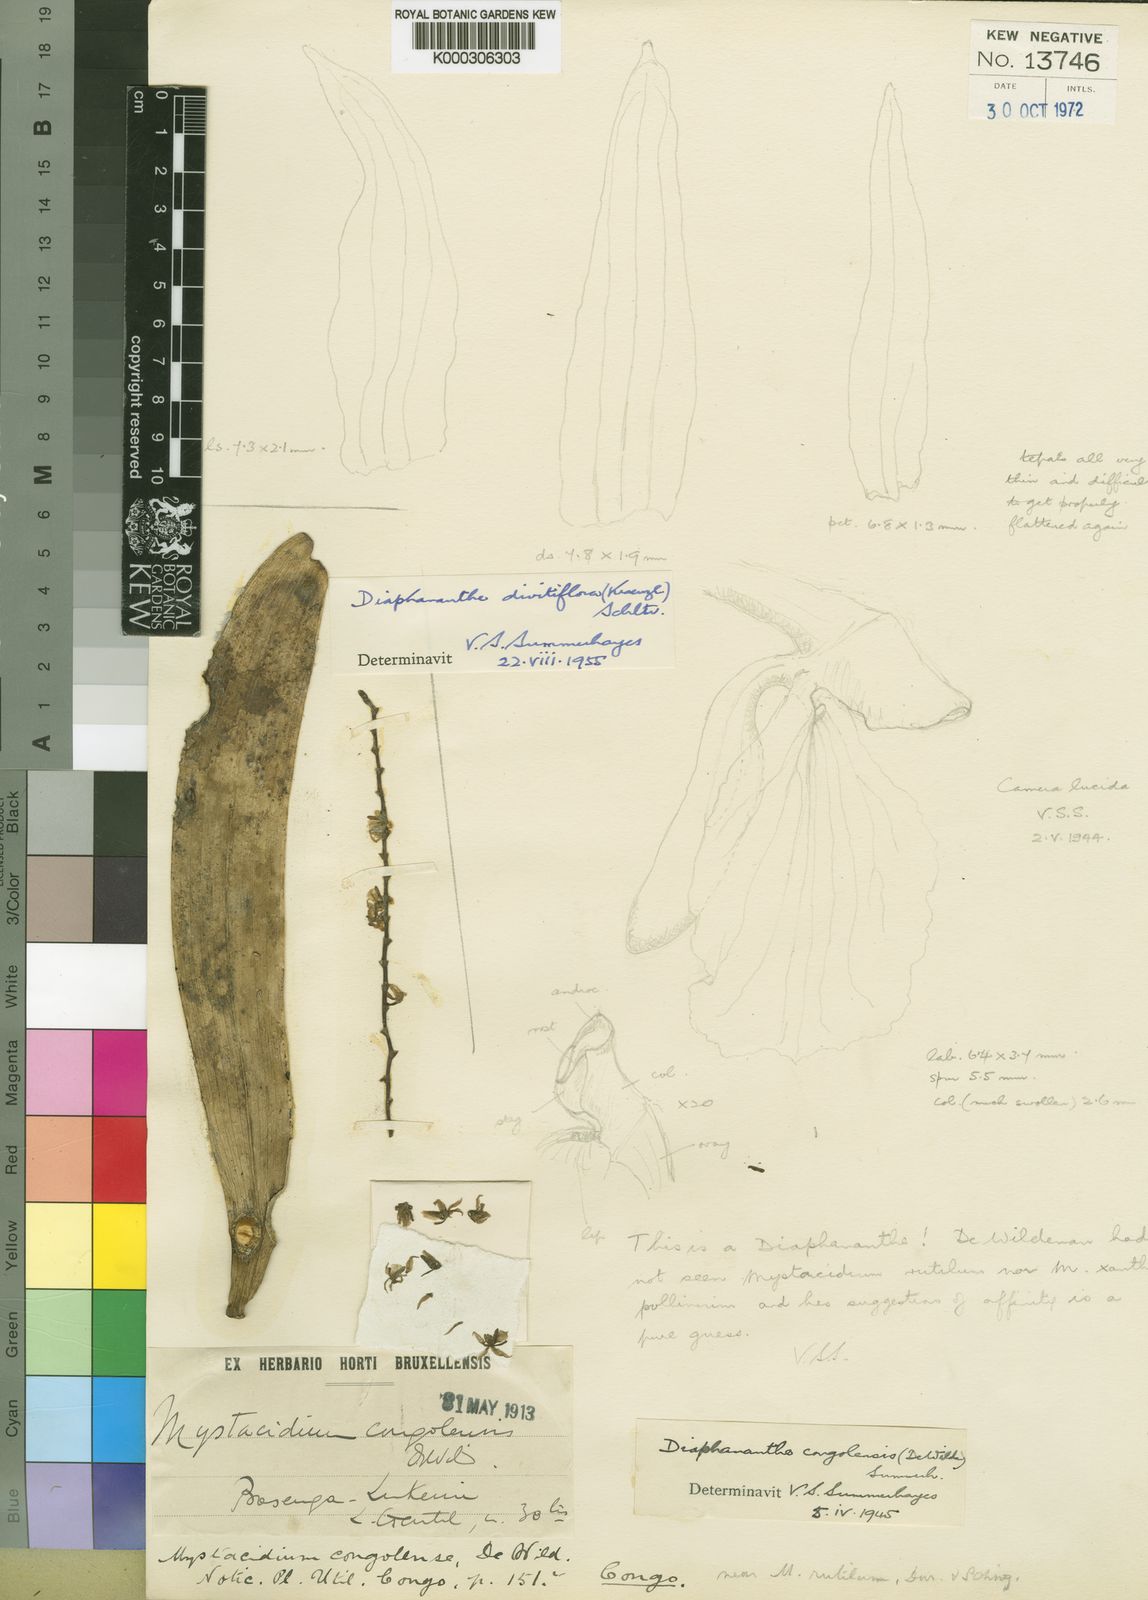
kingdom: Plantae
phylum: Tracheophyta
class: Liliopsida
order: Asparagales
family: Orchidaceae
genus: Diaphananthe
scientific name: Diaphananthe divitiflora
